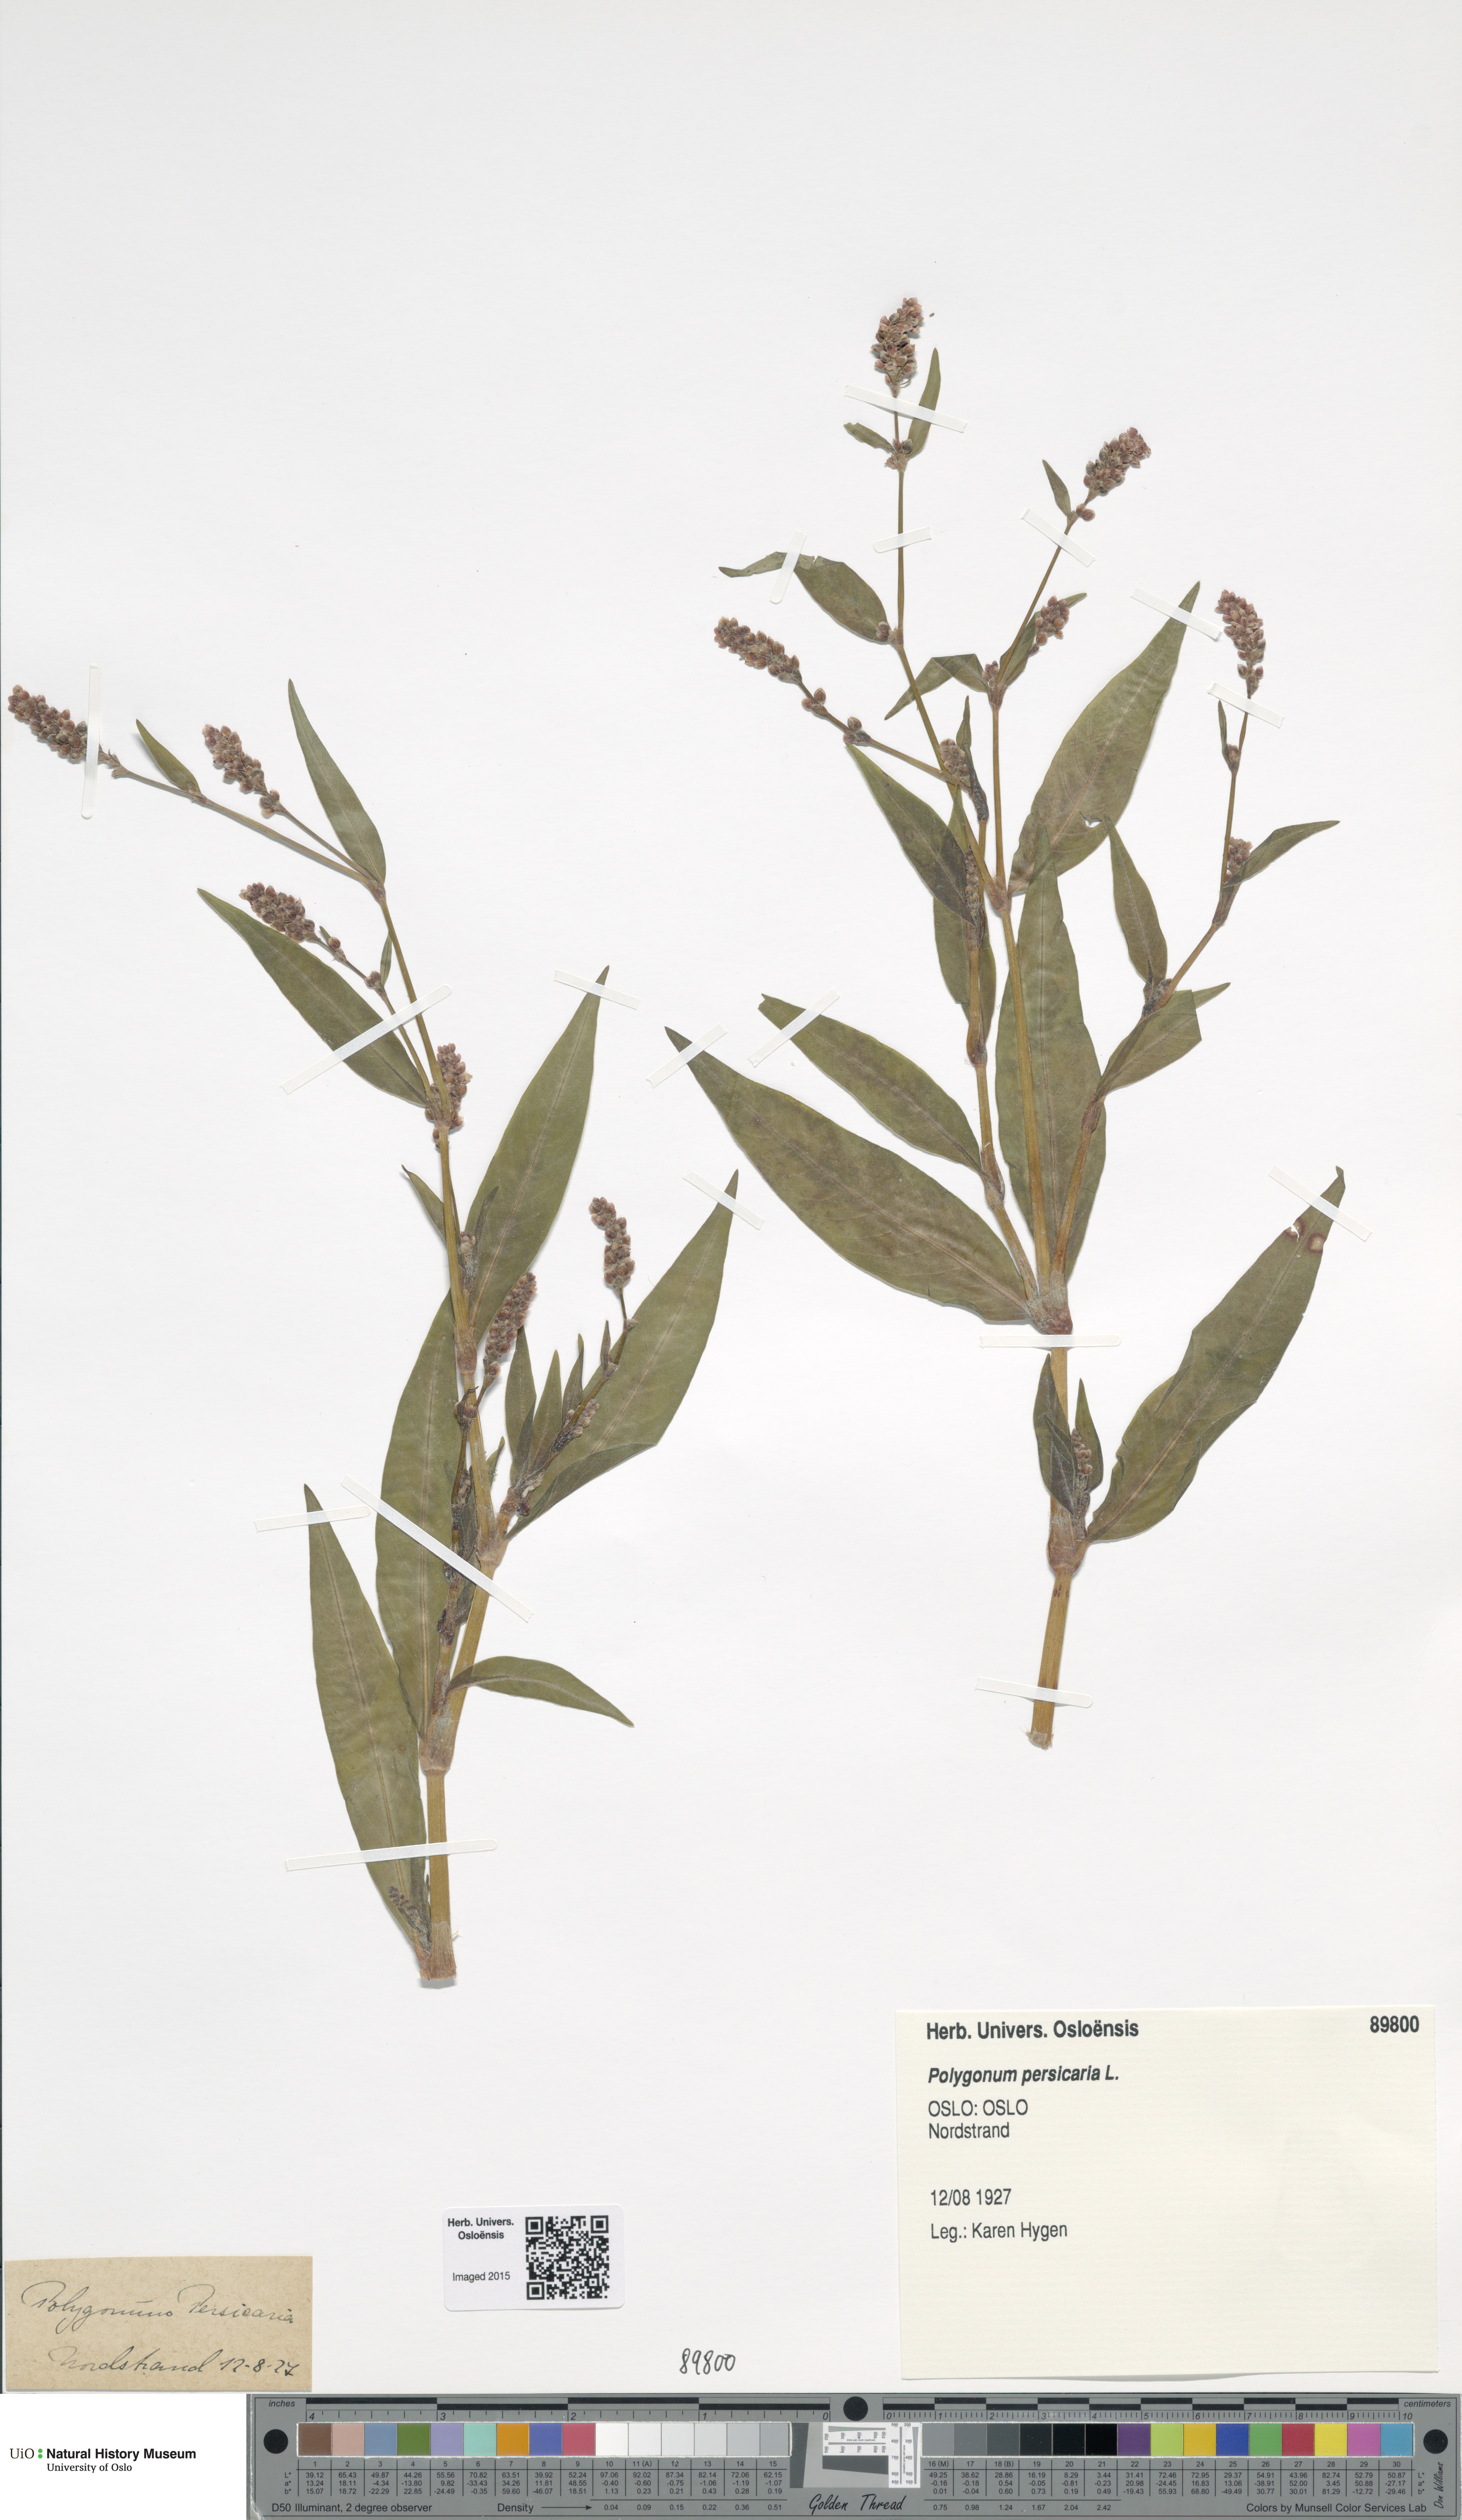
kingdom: Plantae
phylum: Tracheophyta
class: Magnoliopsida
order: Caryophyllales
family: Polygonaceae
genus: Persicaria
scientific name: Persicaria maculosa
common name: Redshank
